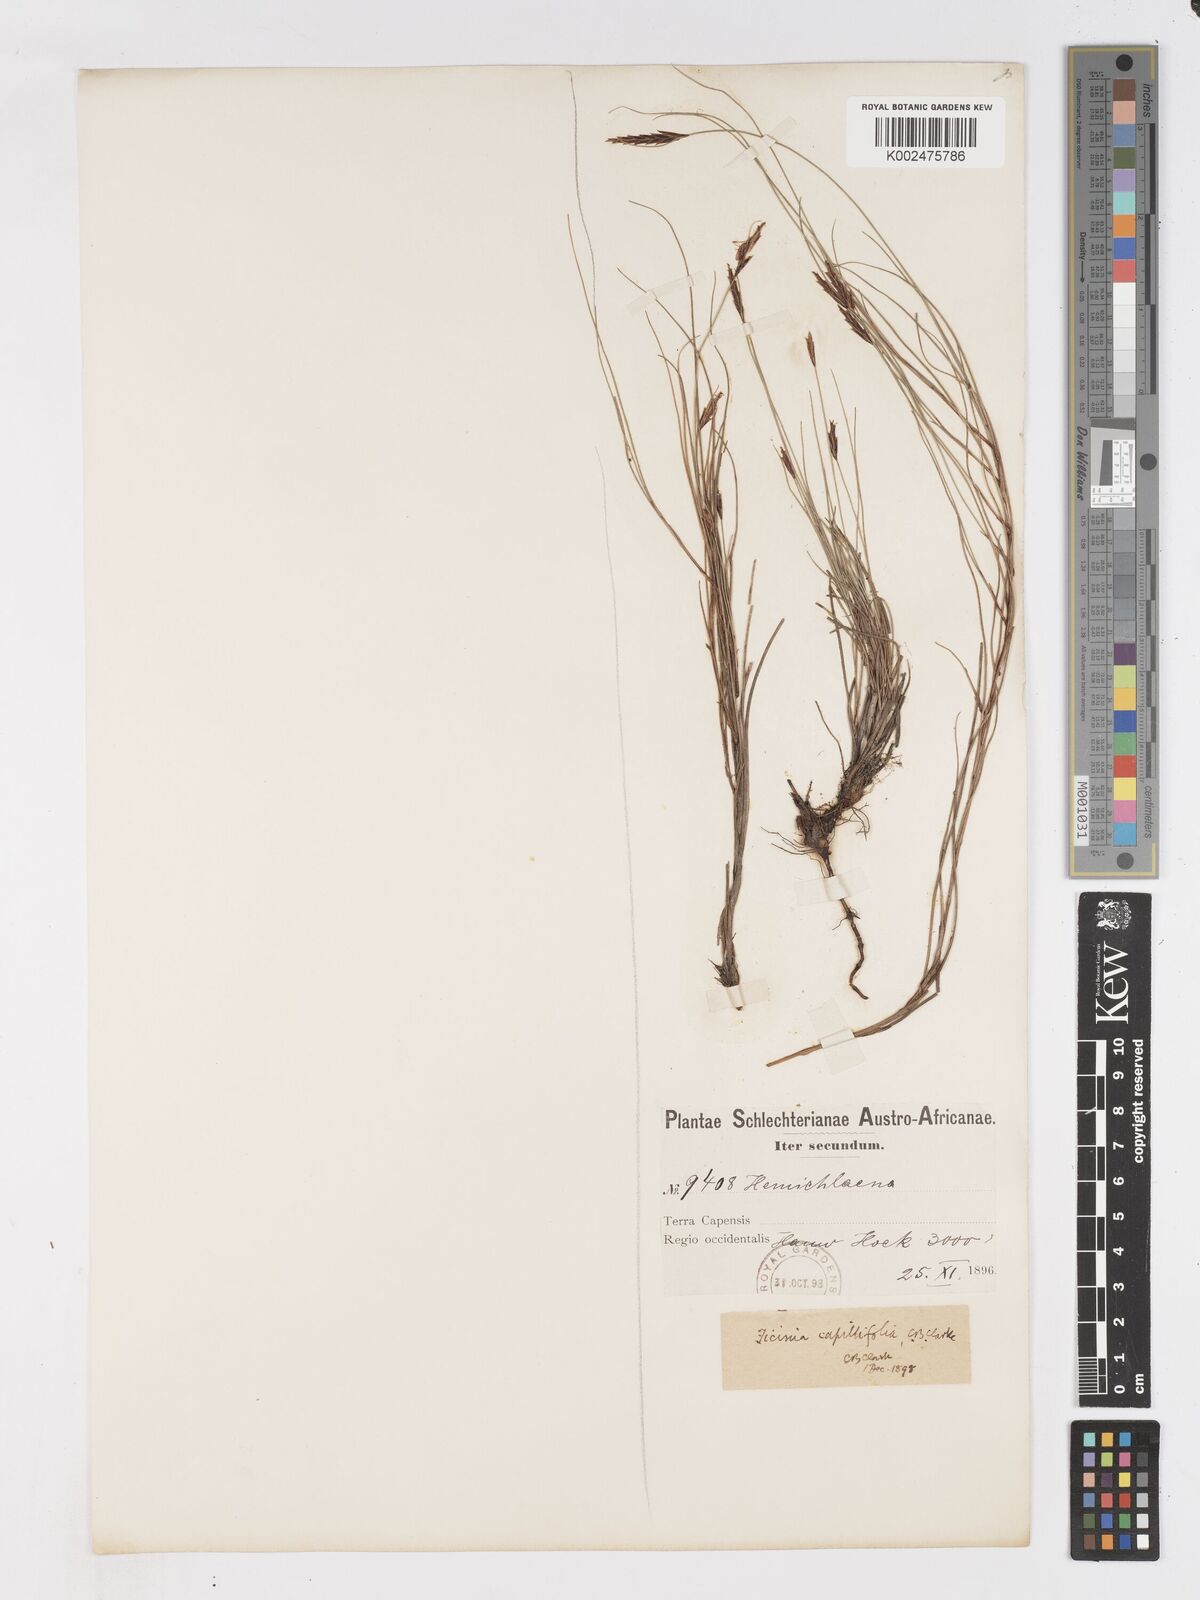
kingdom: Plantae
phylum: Tracheophyta
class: Liliopsida
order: Poales
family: Cyperaceae
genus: Ficinia
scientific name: Ficinia capillifolia
